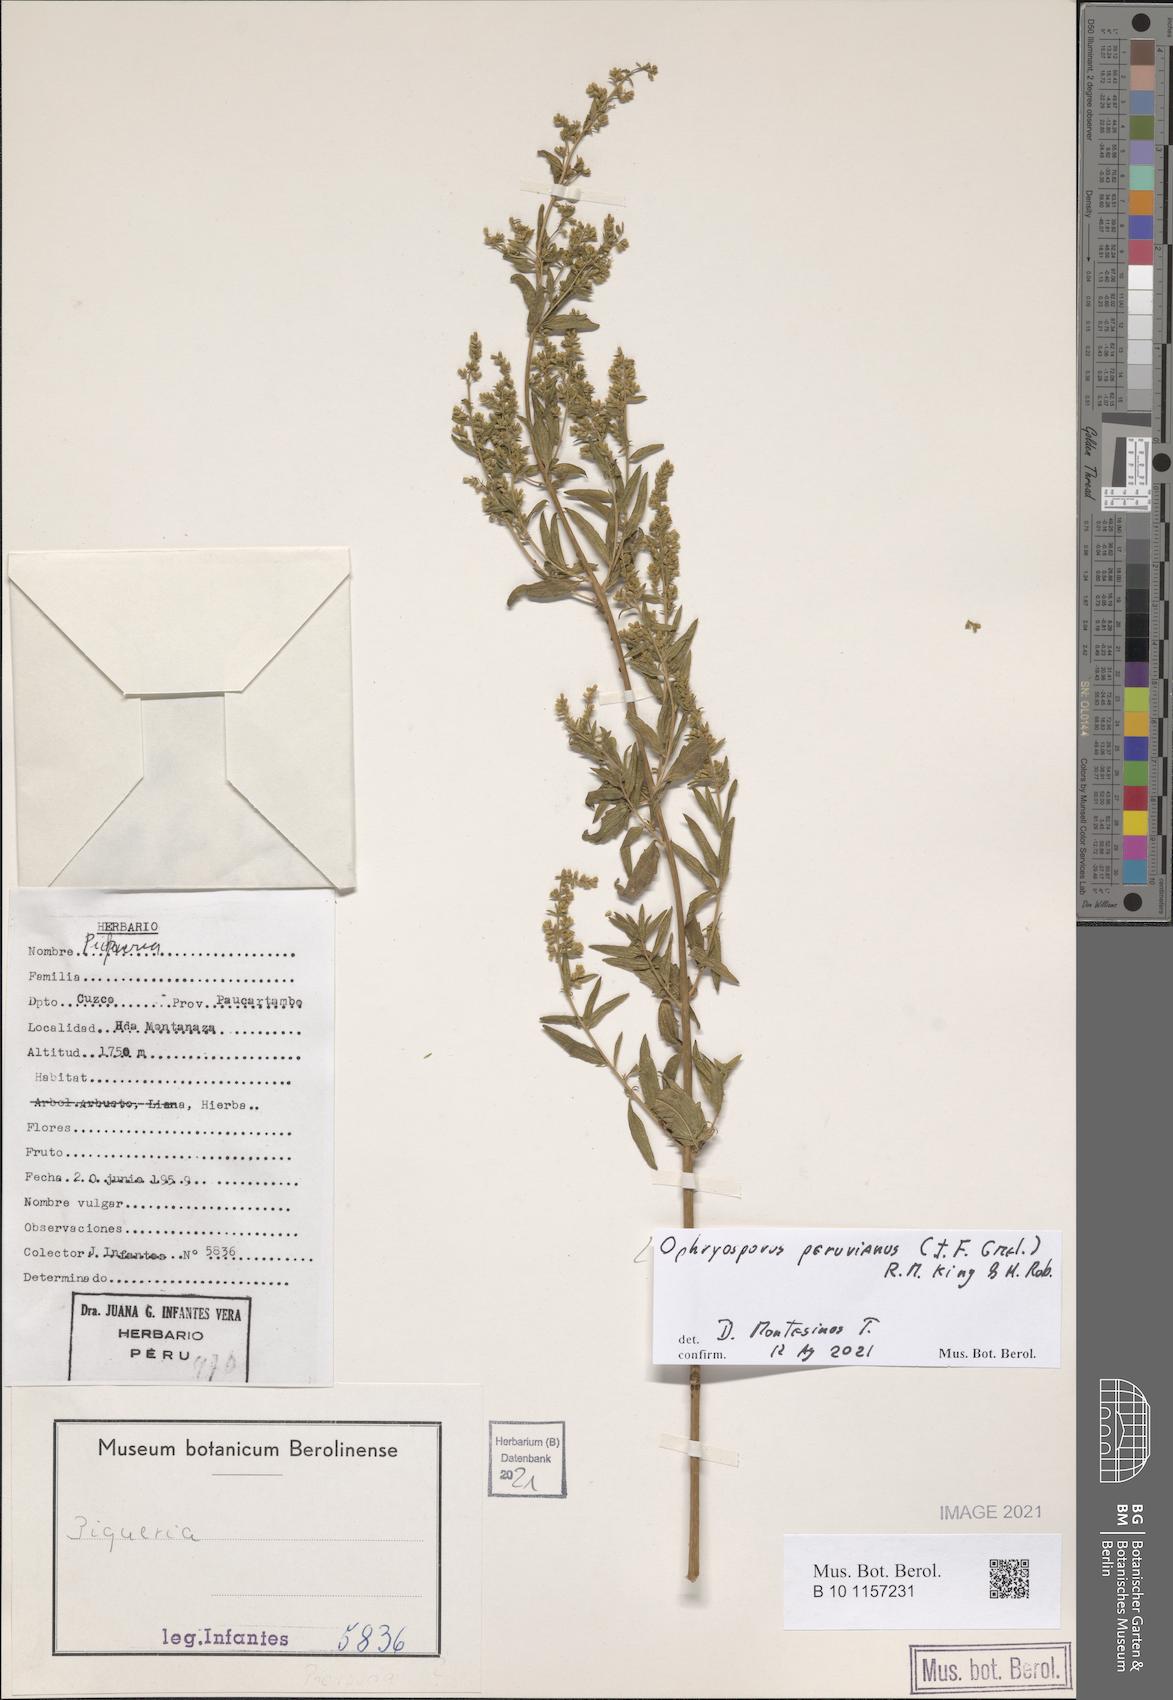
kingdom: Plantae
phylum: Tracheophyta
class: Magnoliopsida
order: Asterales
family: Asteraceae
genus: Ophryosporus
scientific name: Ophryosporus peruvianus
